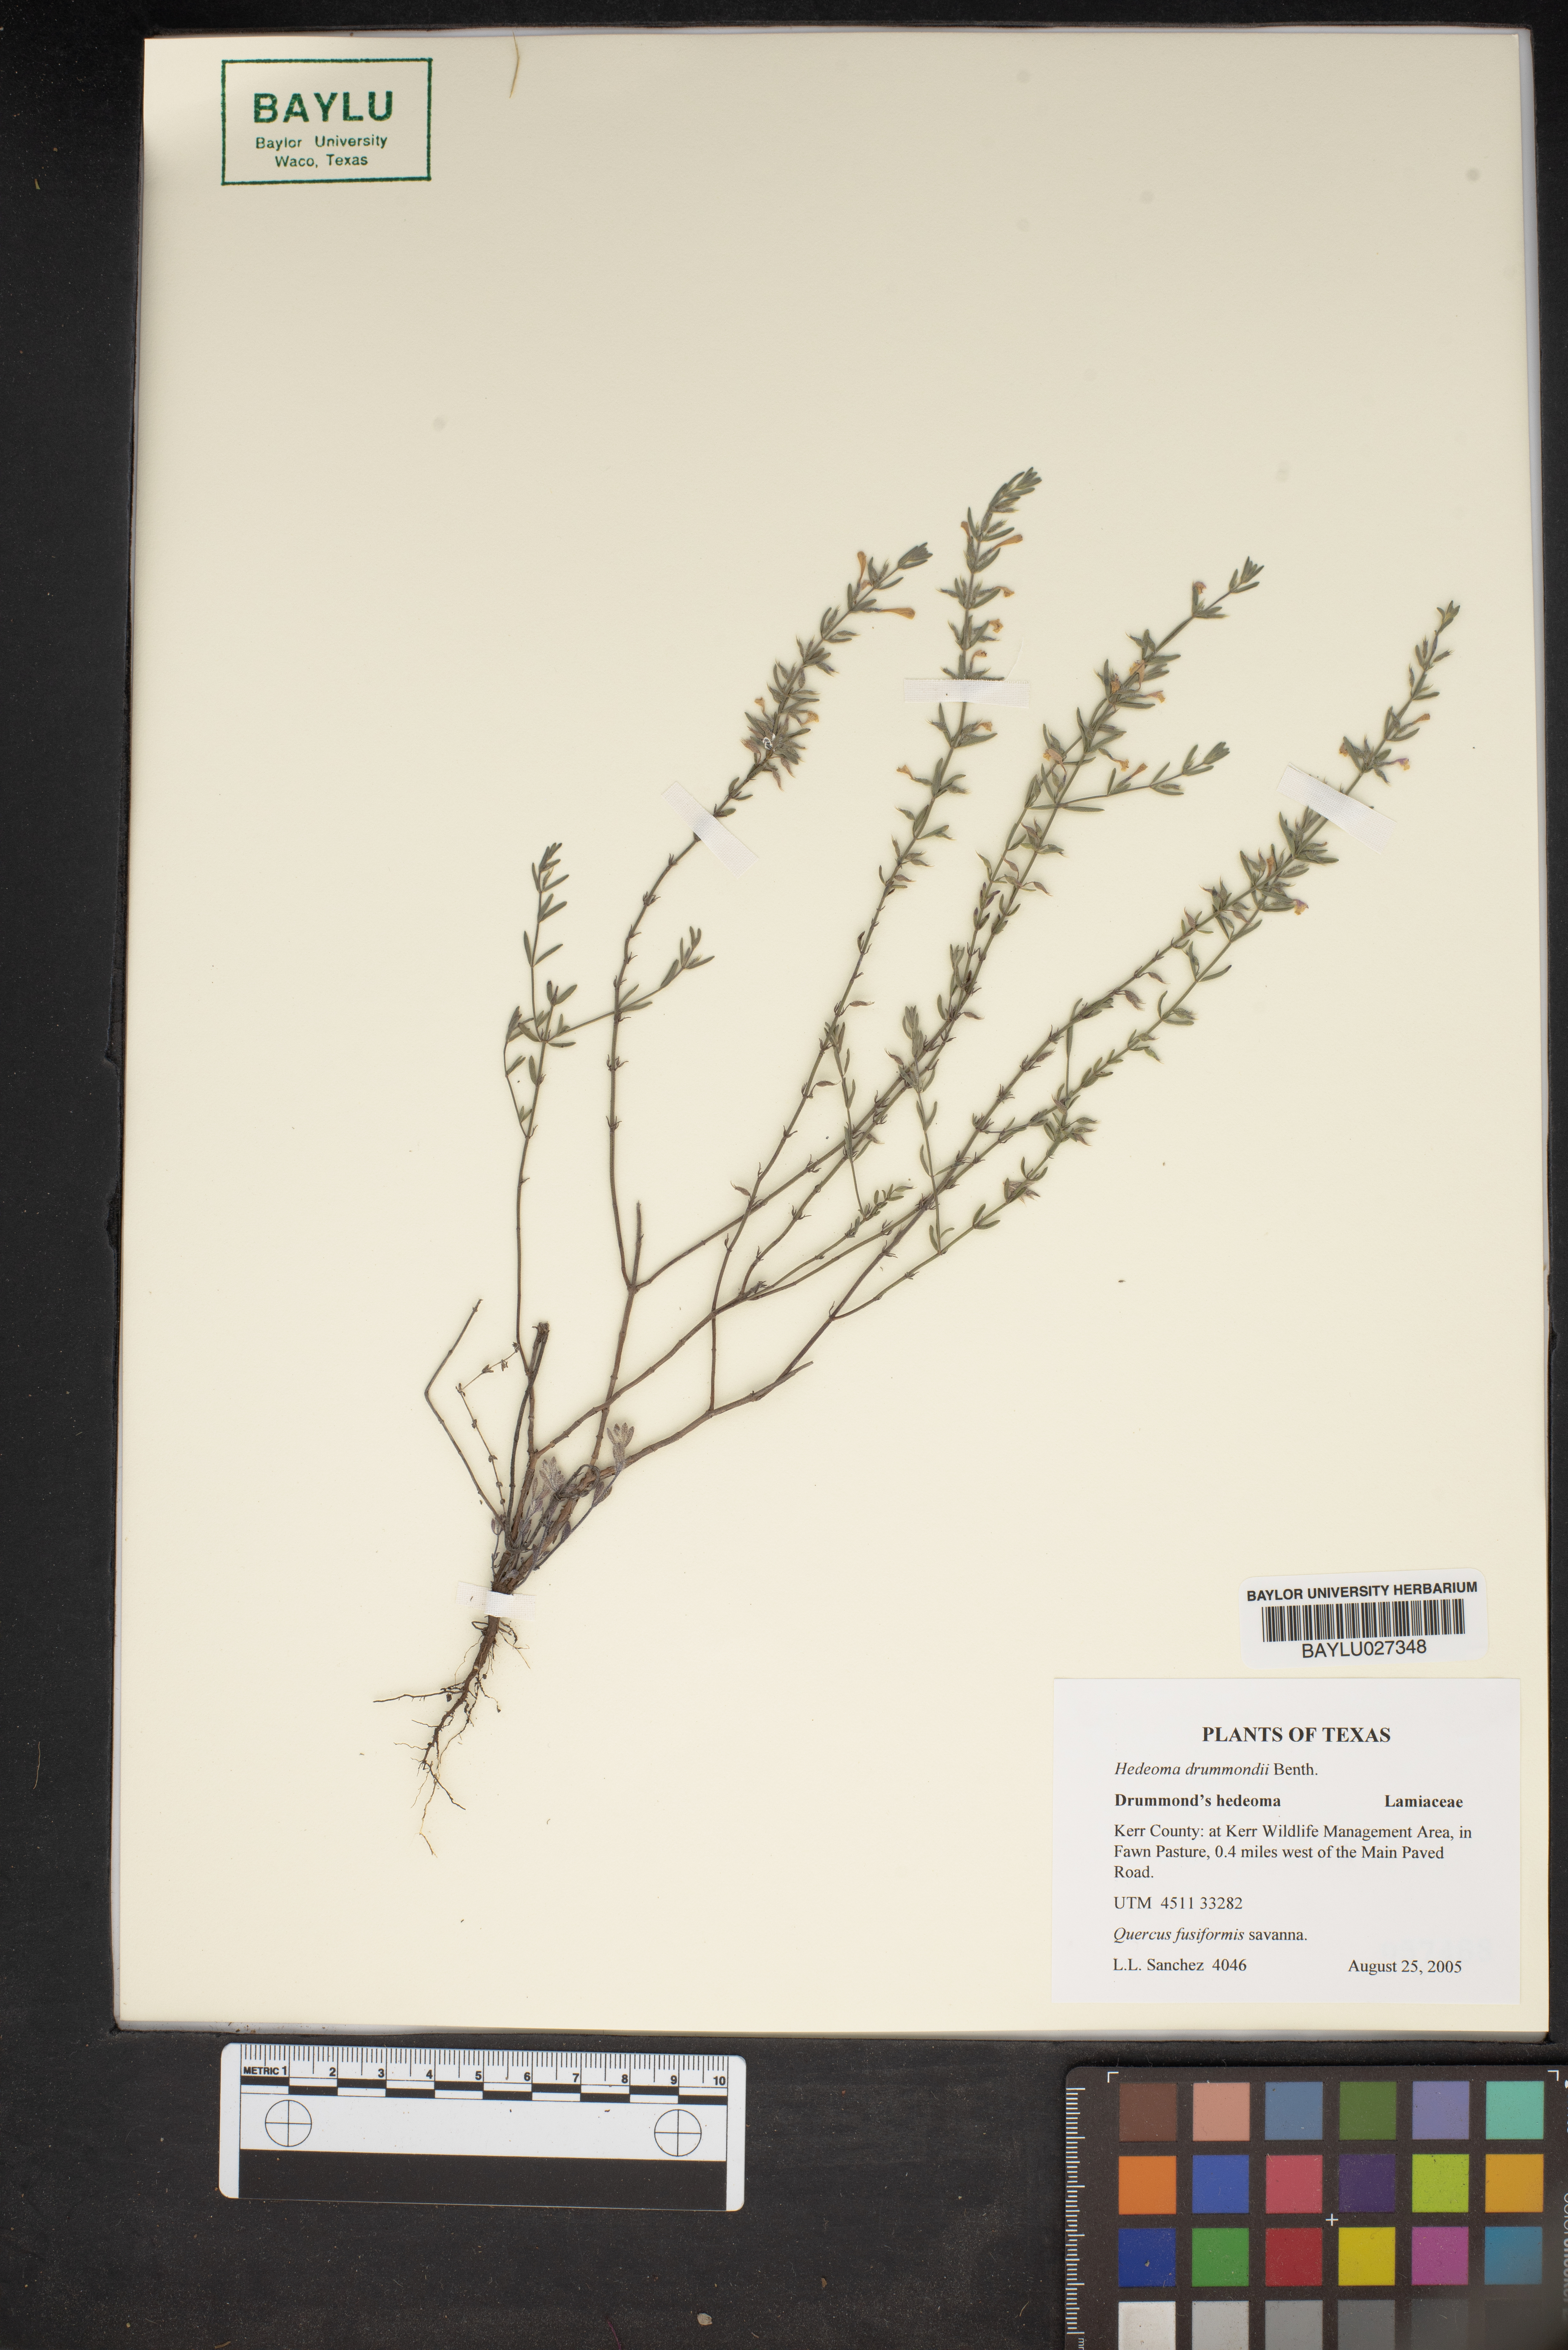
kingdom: Plantae
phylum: Tracheophyta
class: Magnoliopsida
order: Lamiales
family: Lamiaceae
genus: Hedeoma
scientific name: Hedeoma drummondii
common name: New mexico pennyroyal
